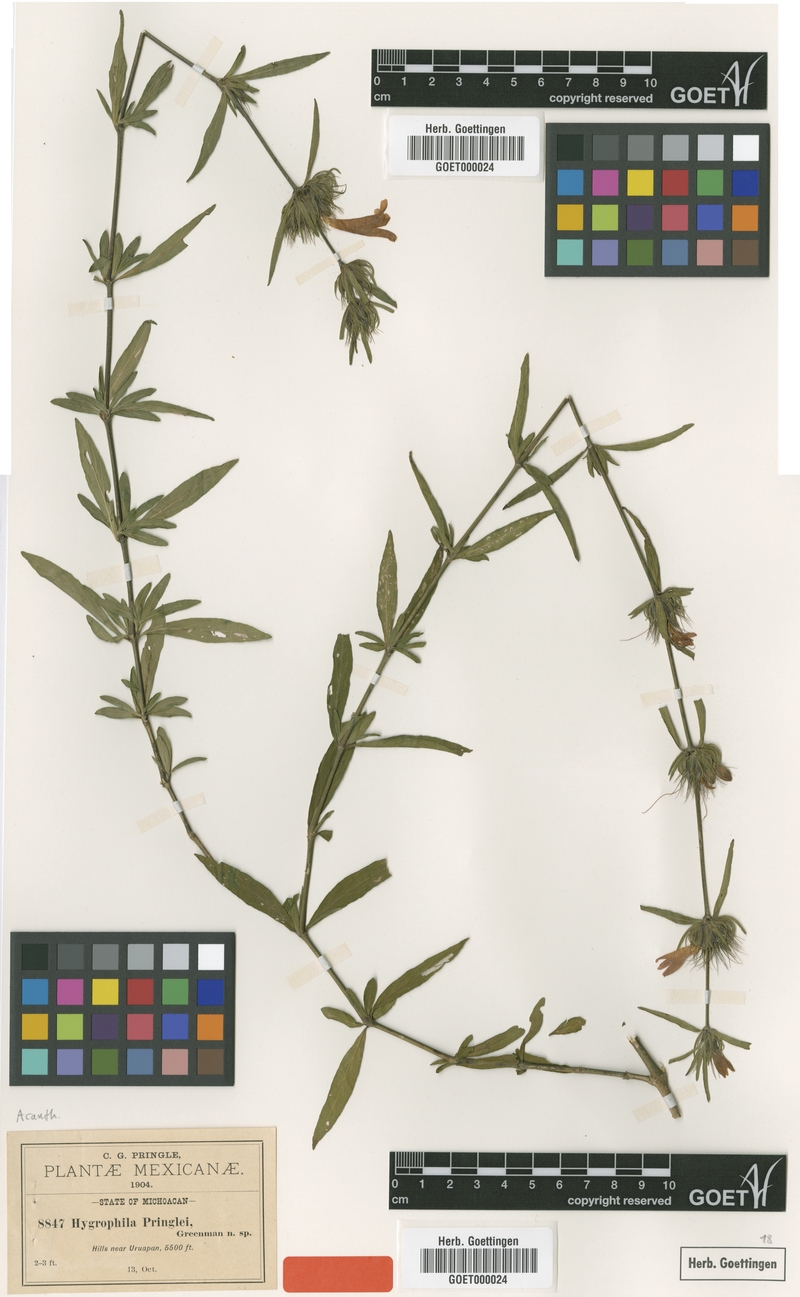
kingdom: Plantae
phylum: Tracheophyta
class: Magnoliopsida
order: Lamiales
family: Acanthaceae
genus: Dyschoriste
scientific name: Dyschoriste angustifolia
